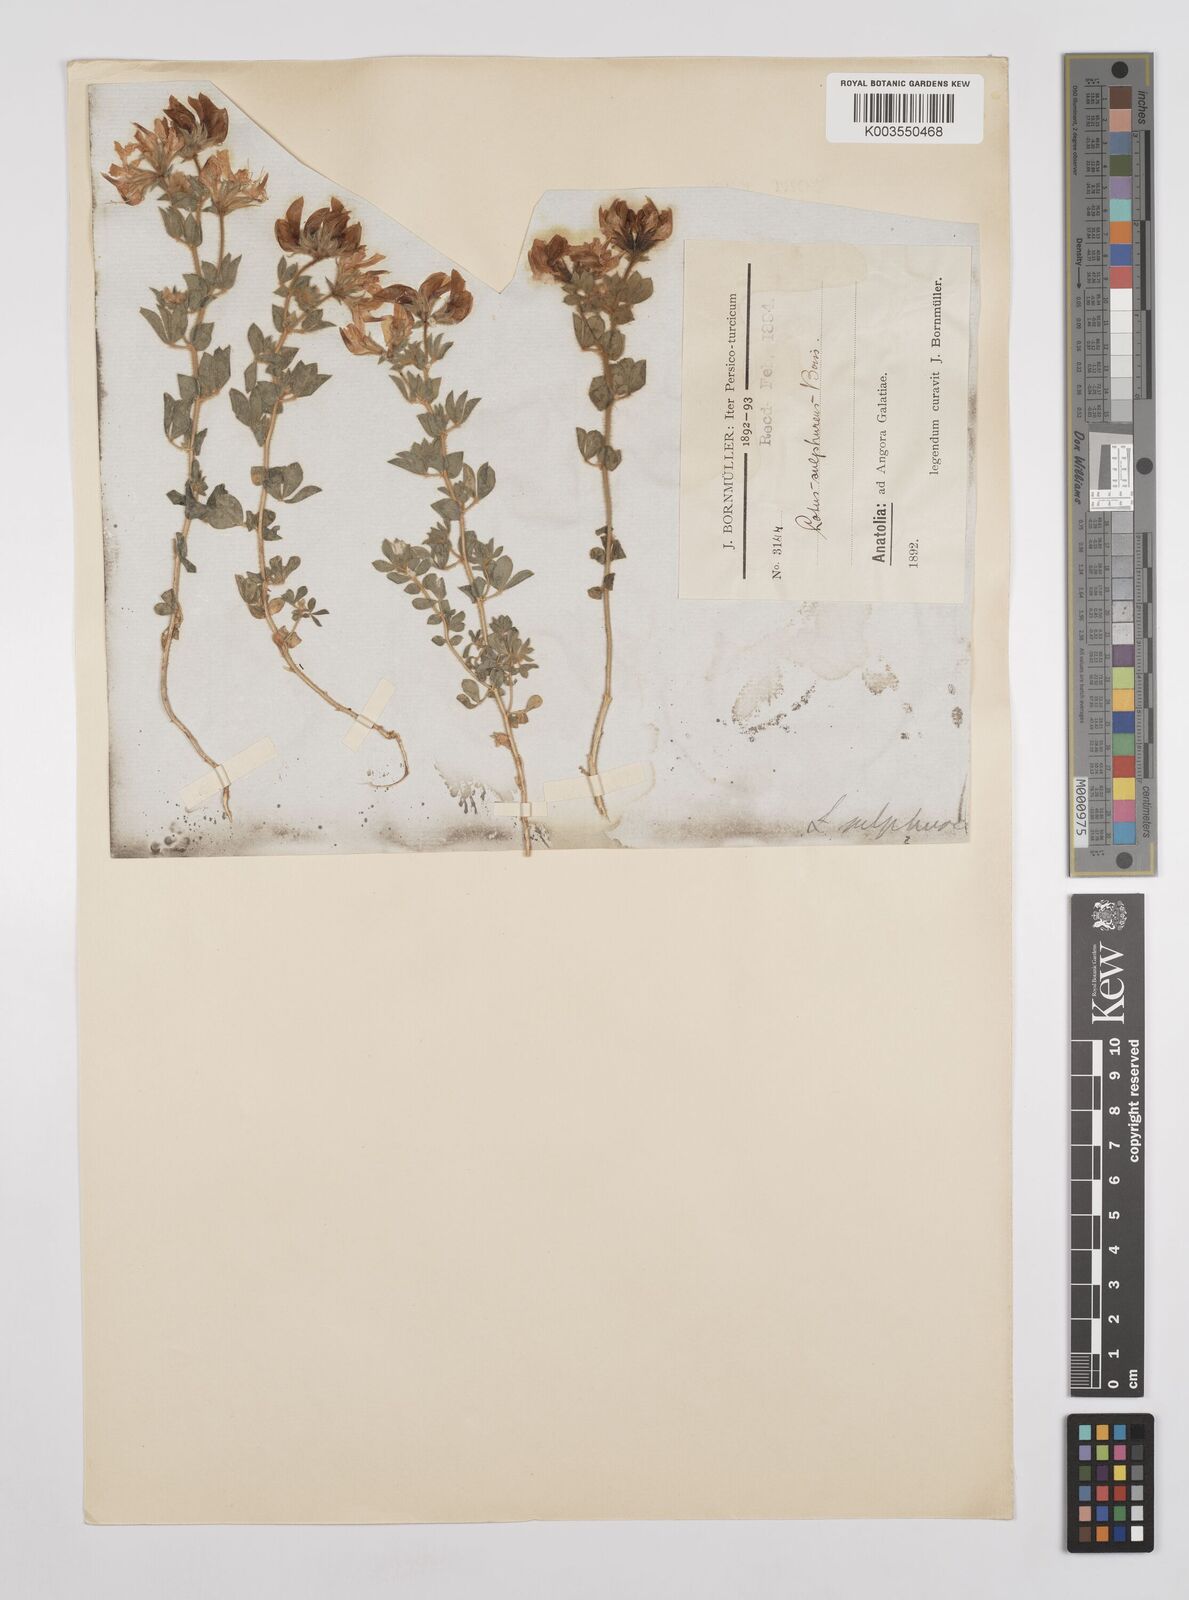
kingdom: Plantae
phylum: Tracheophyta
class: Magnoliopsida
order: Fabales
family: Fabaceae
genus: Lotus
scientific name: Lotus aegaeus
